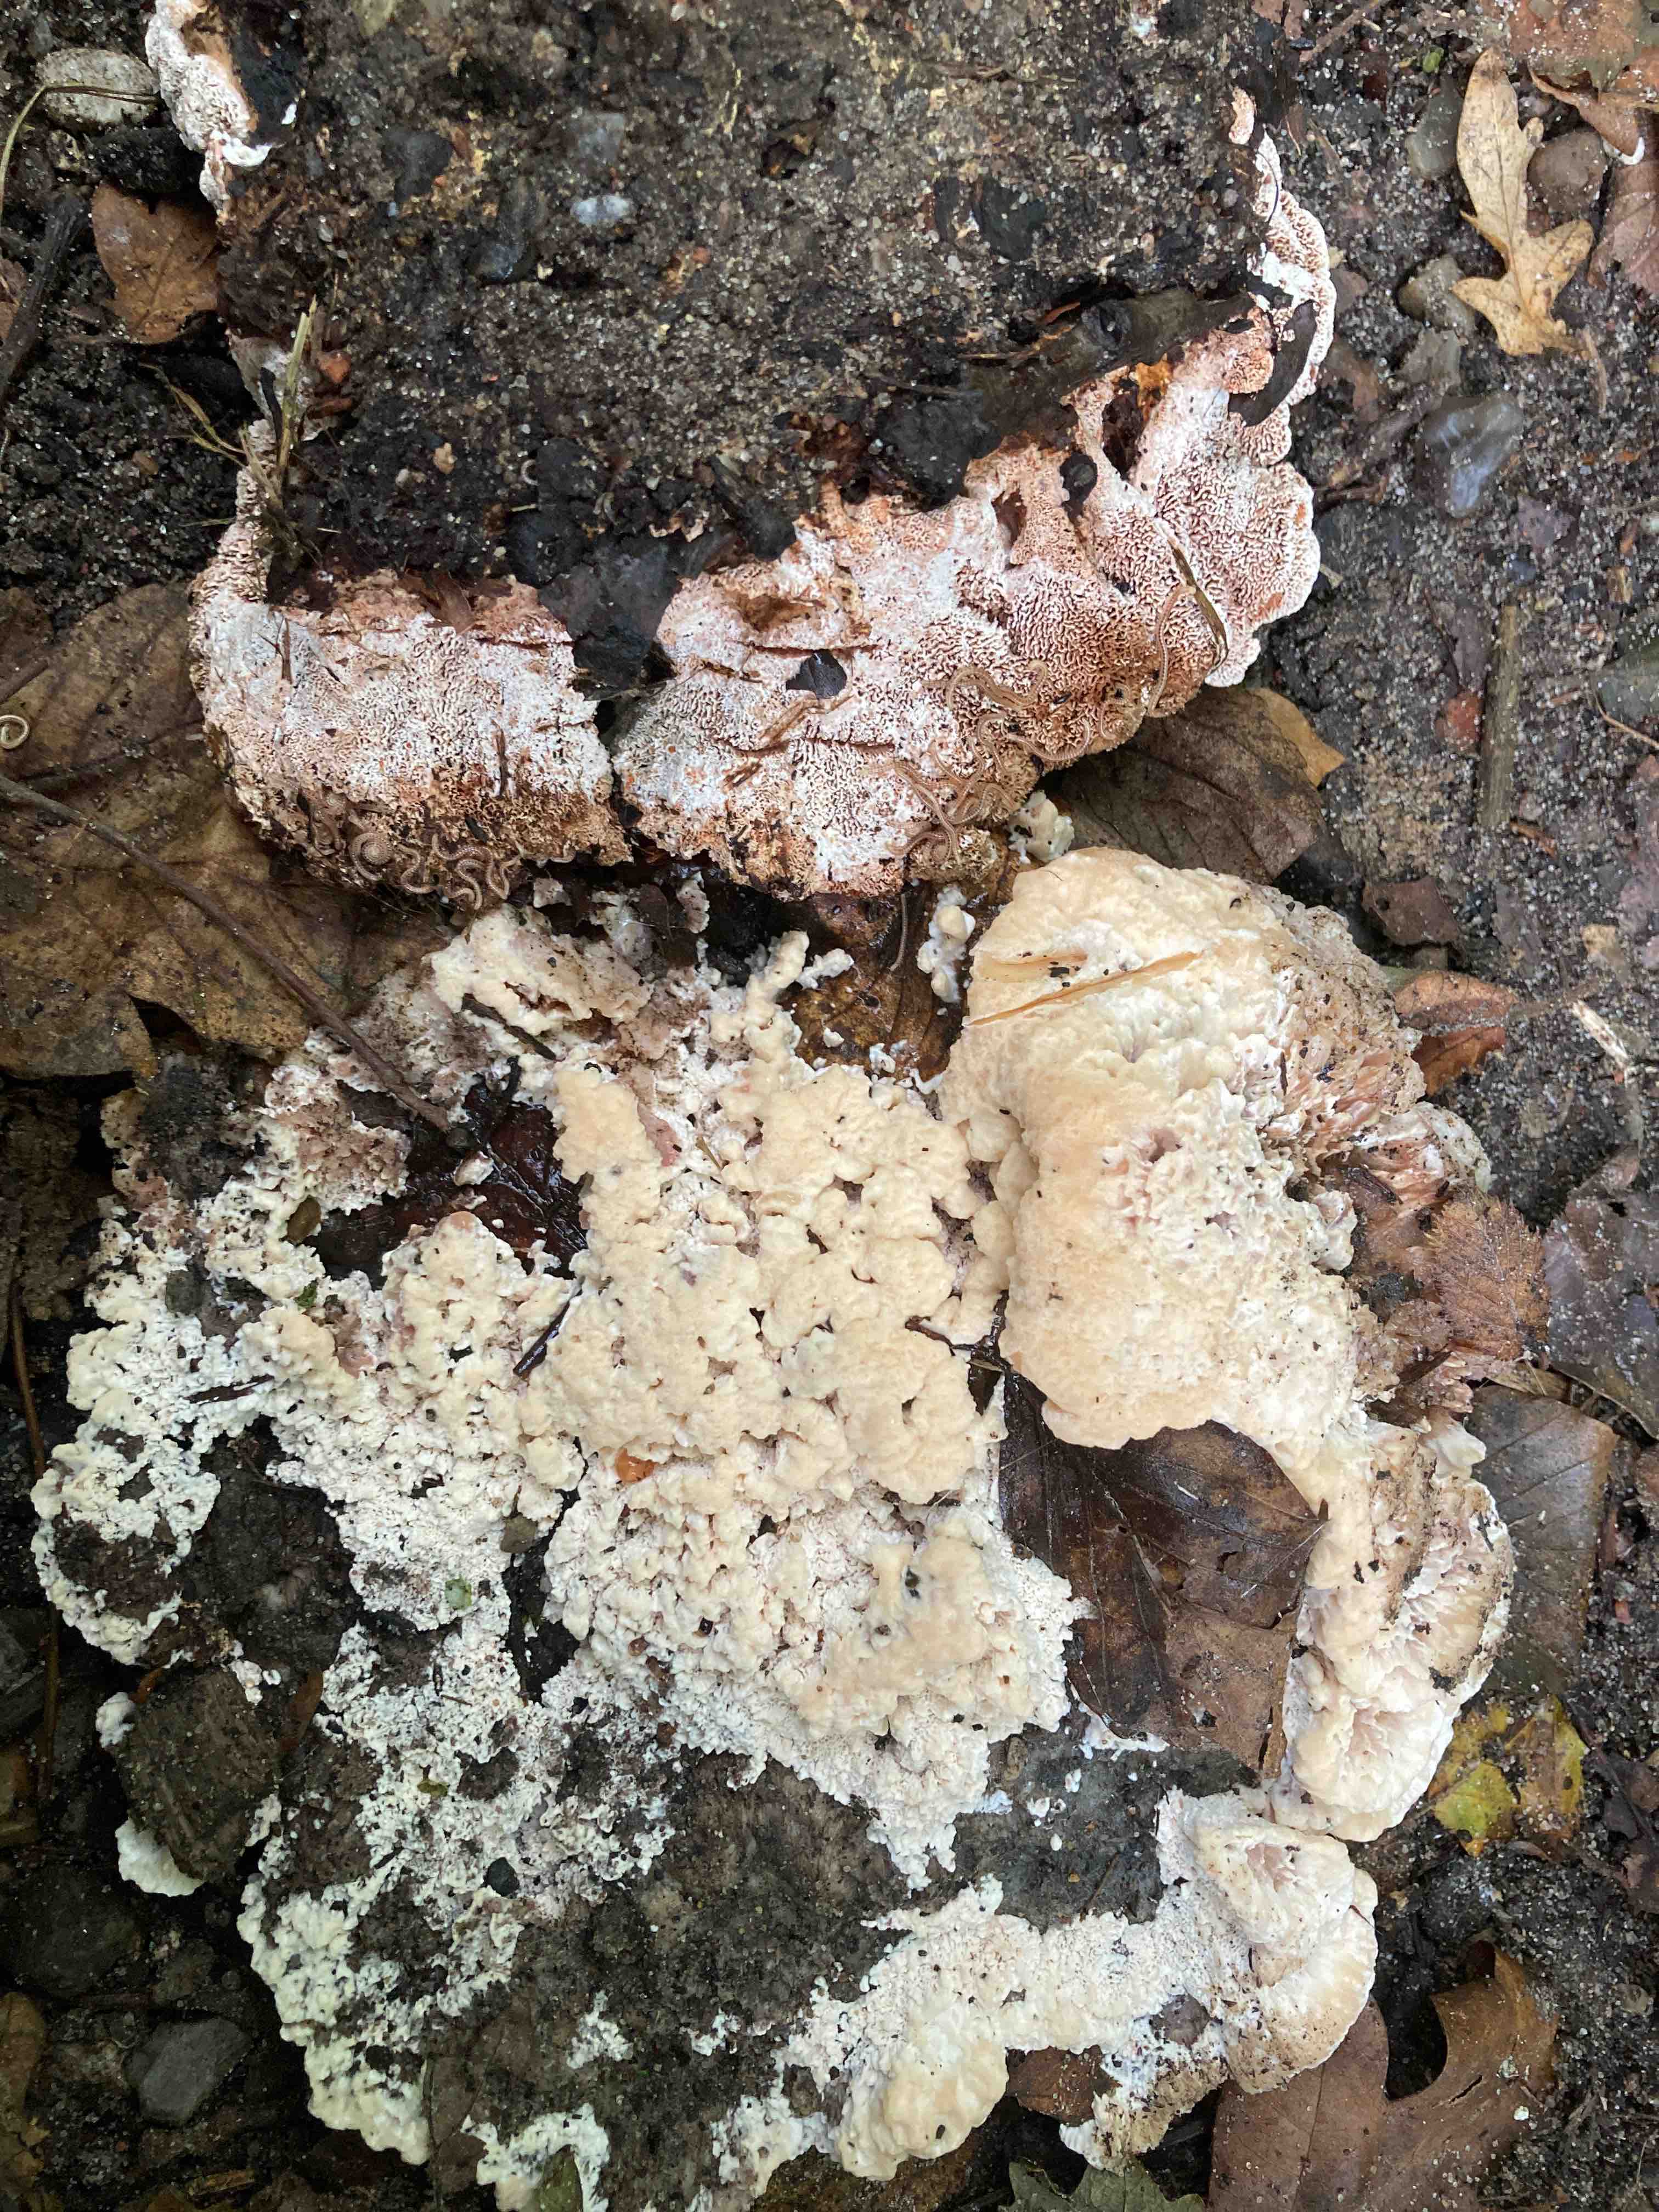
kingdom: Fungi
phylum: Basidiomycota
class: Agaricomycetes
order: Polyporales
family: Podoscyphaceae
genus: Abortiporus
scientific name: Abortiporus biennis
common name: rødmende pjalteporesvamp
